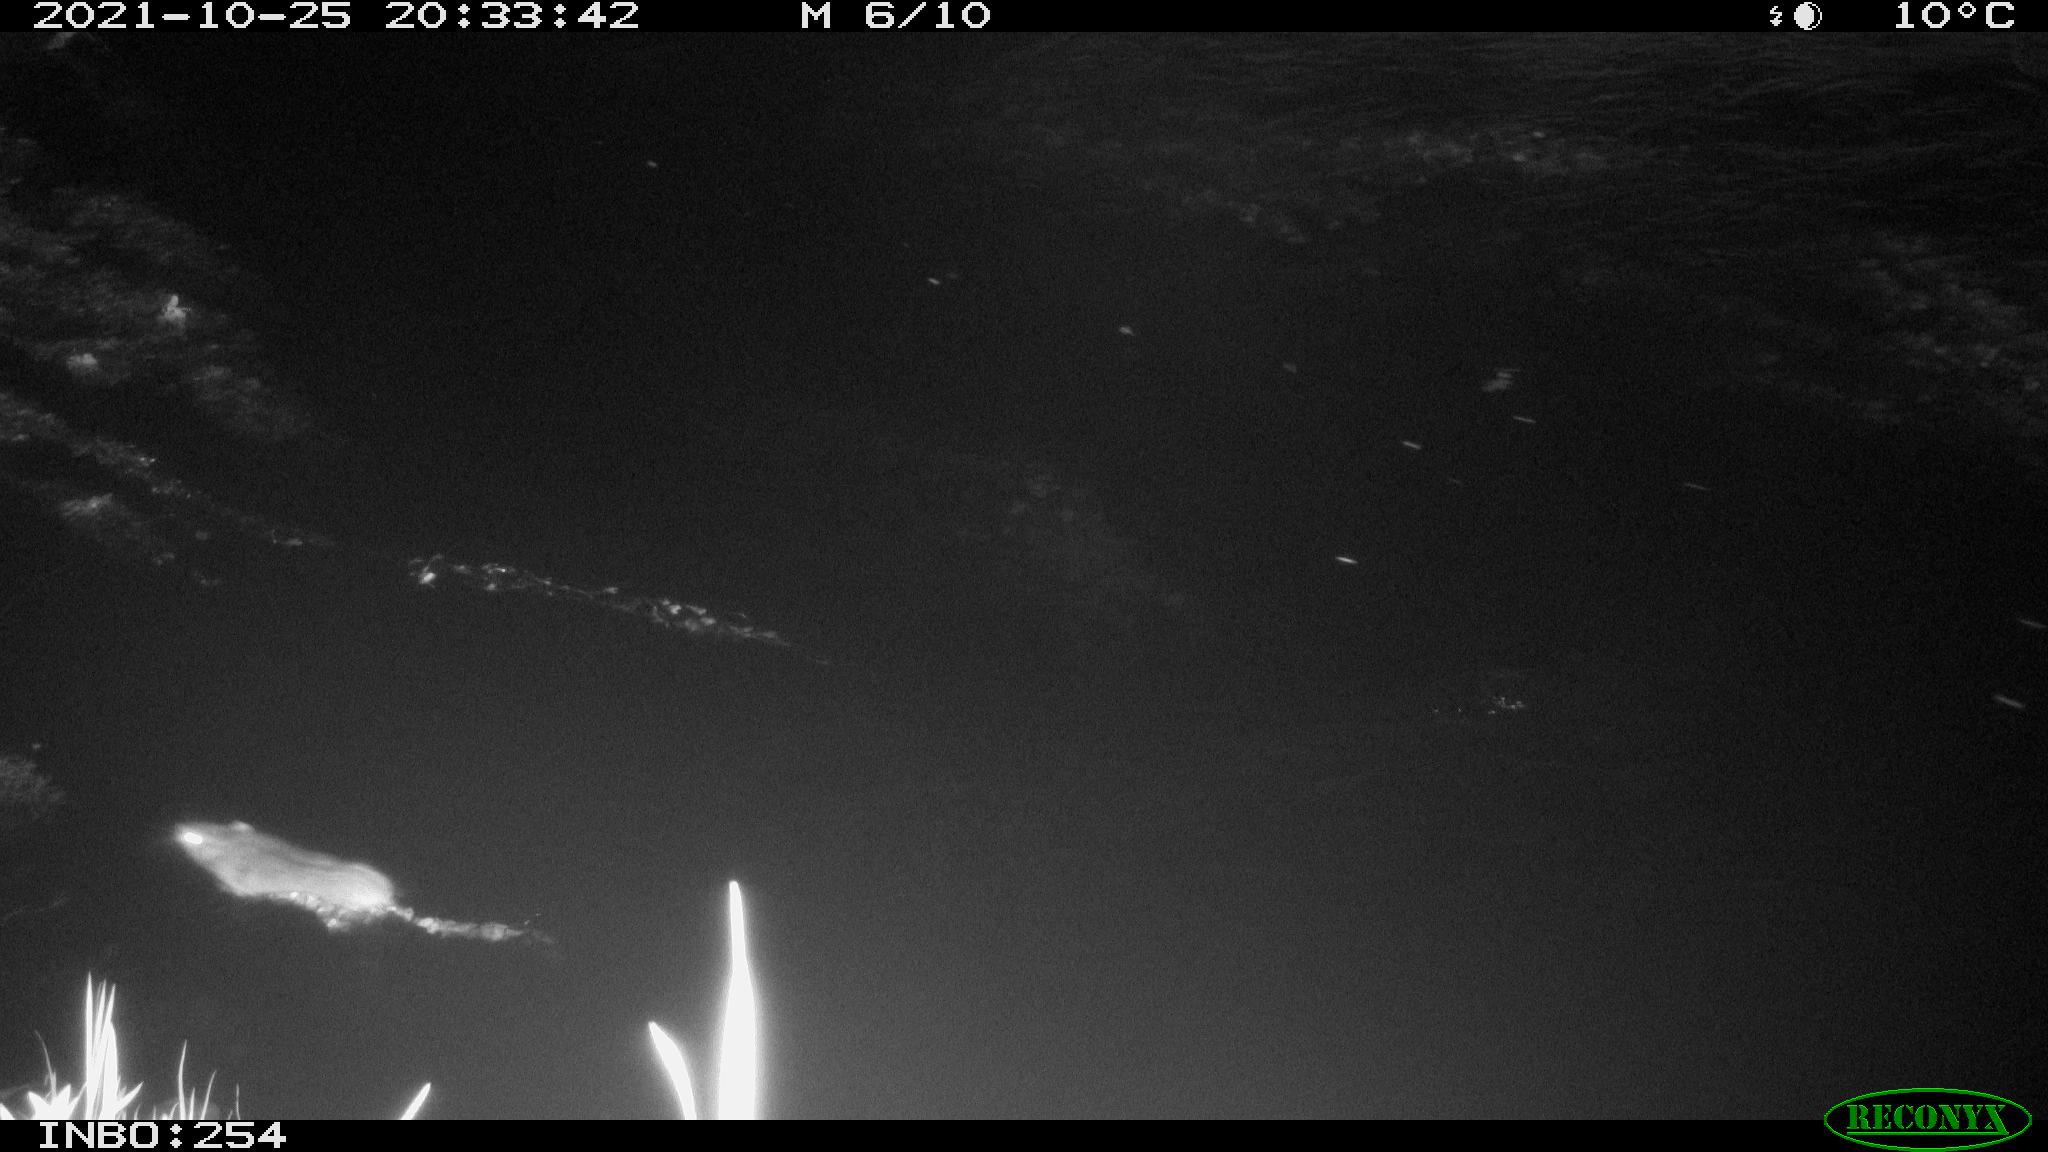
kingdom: Animalia
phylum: Chordata
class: Mammalia
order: Rodentia
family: Muridae
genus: Rattus
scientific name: Rattus norvegicus
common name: Brown rat
